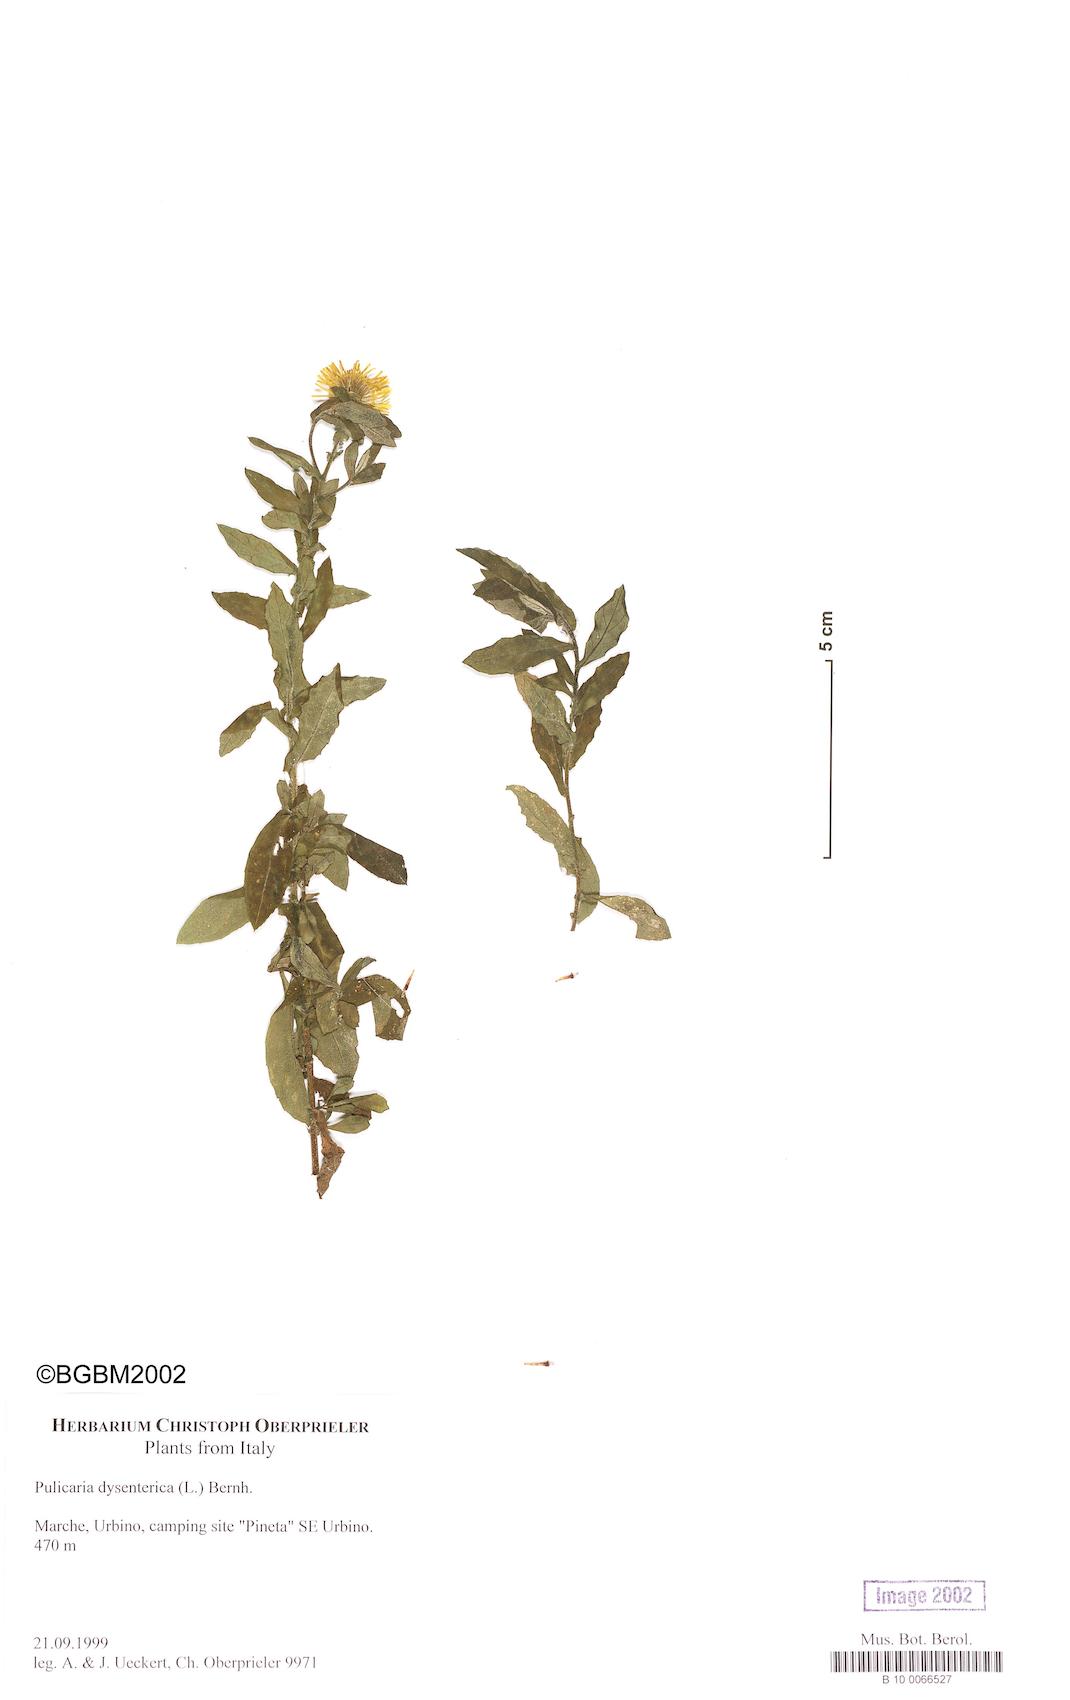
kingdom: Plantae
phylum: Tracheophyta
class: Magnoliopsida
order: Asterales
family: Asteraceae
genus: Pulicaria
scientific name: Pulicaria dysenterica
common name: Common fleabane
